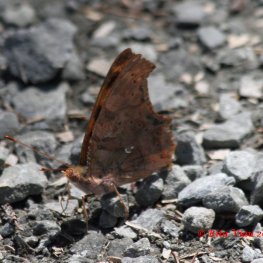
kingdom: Animalia
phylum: Arthropoda
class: Insecta
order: Lepidoptera
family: Nymphalidae
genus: Polygonia
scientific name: Polygonia interrogationis
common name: Question Mark
